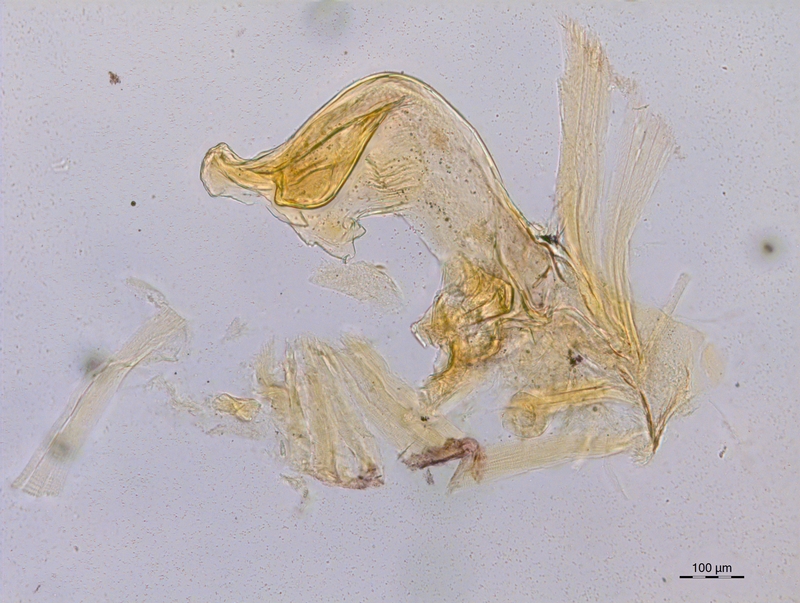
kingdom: Animalia
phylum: Arthropoda
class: Diplopoda
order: Chordeumatida
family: Craspedosomatidae
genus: Craspedosoma
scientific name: Craspedosoma rawlinsii
